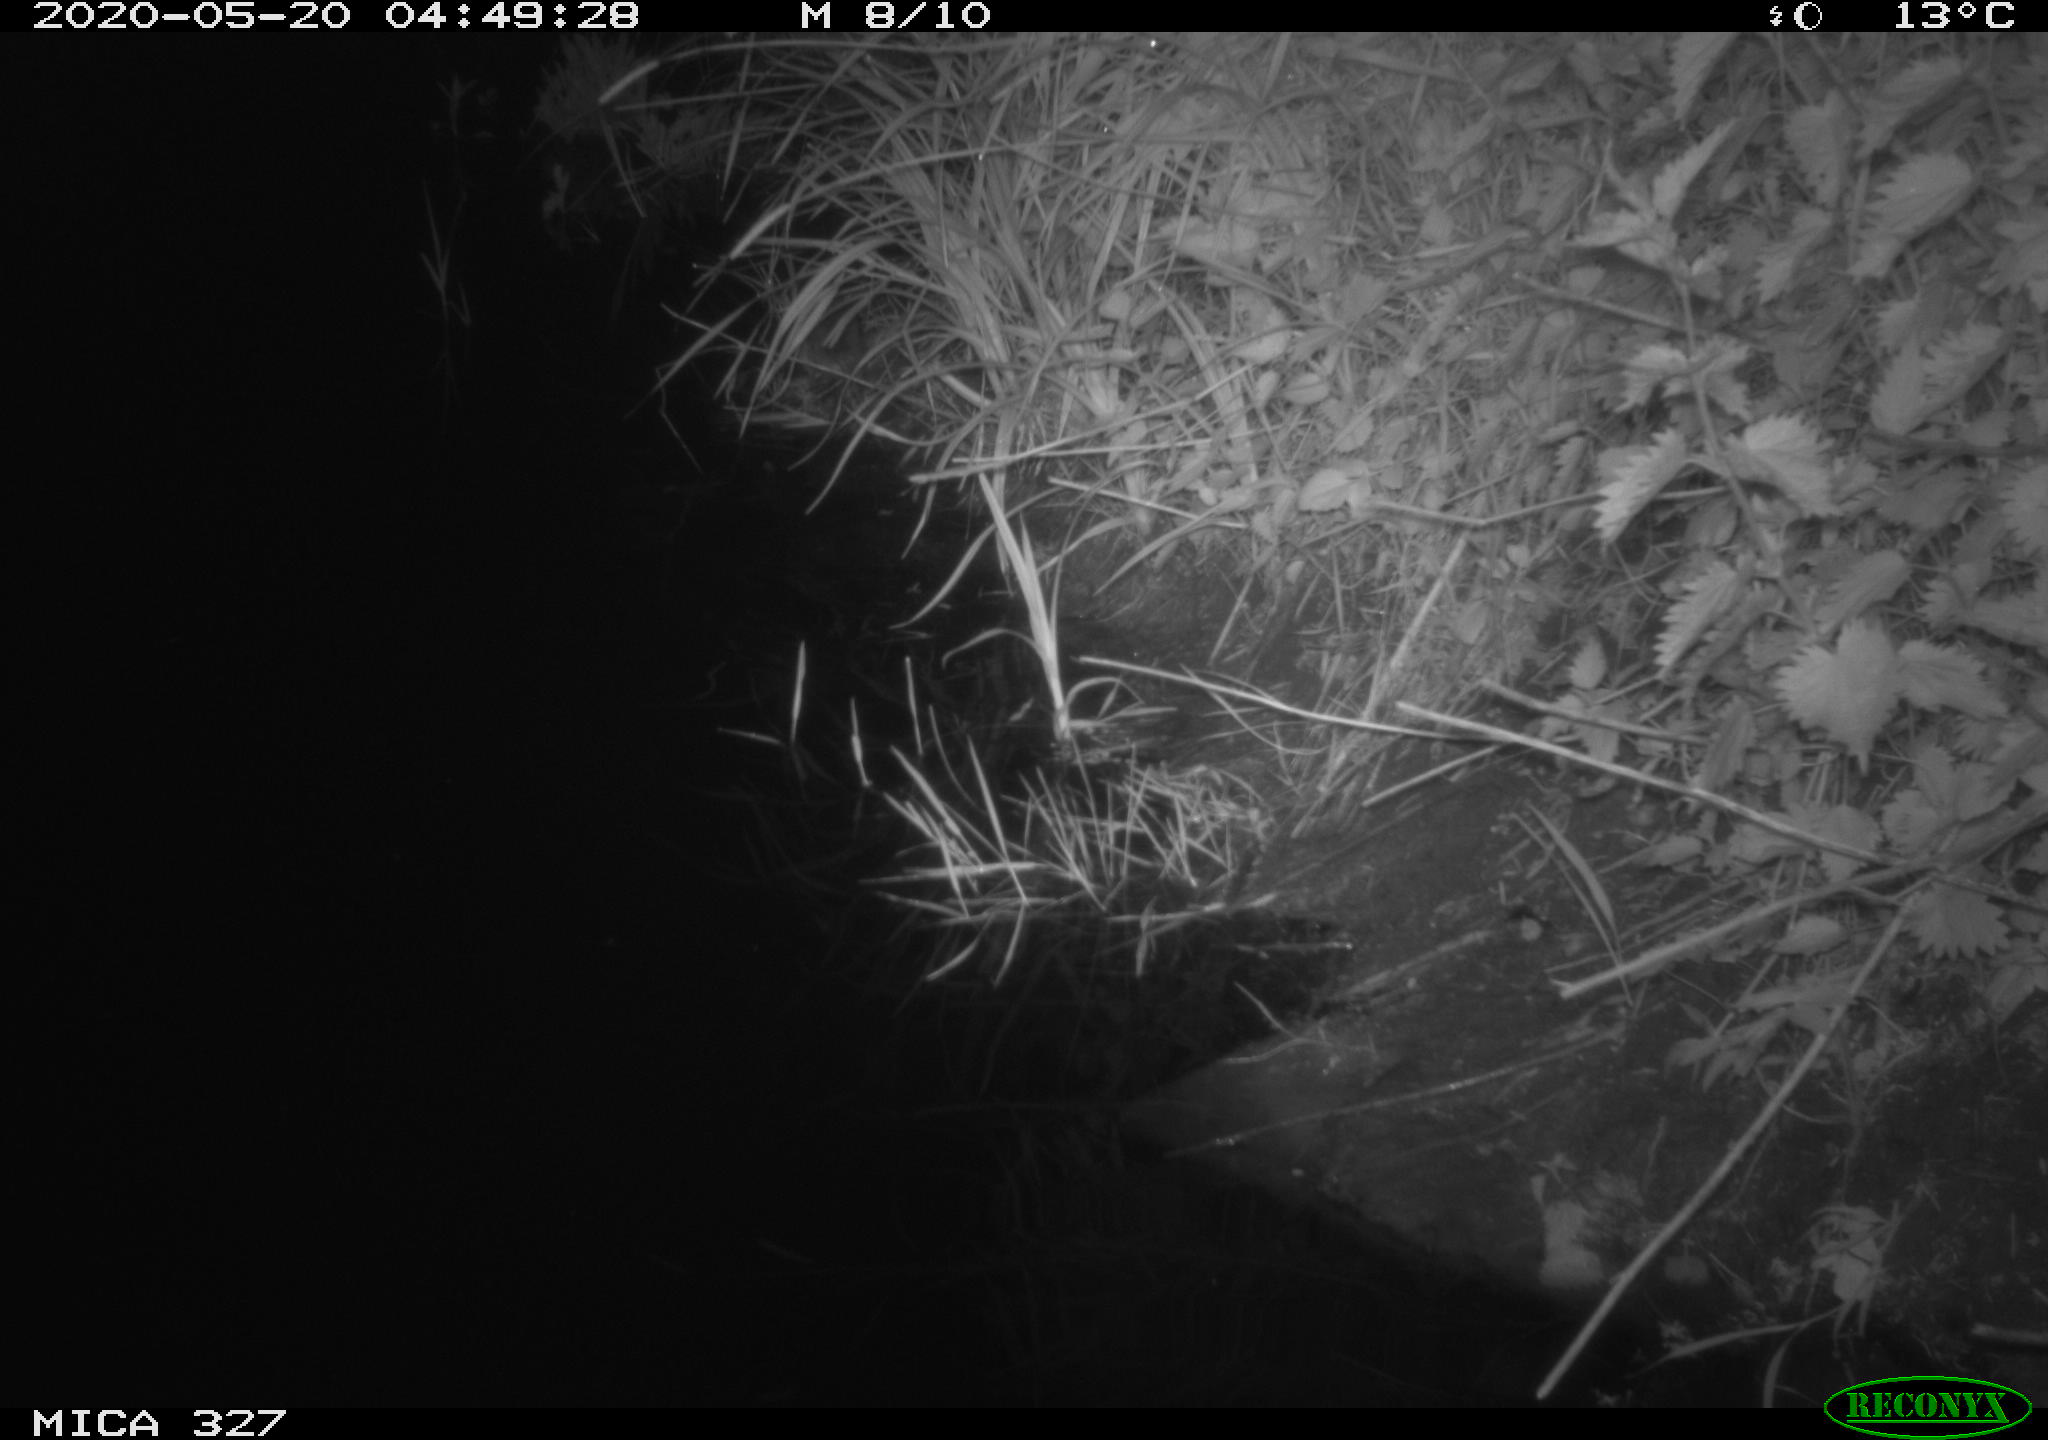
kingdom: Animalia
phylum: Chordata
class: Mammalia
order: Rodentia
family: Muridae
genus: Rattus
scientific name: Rattus norvegicus
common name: Brown rat
